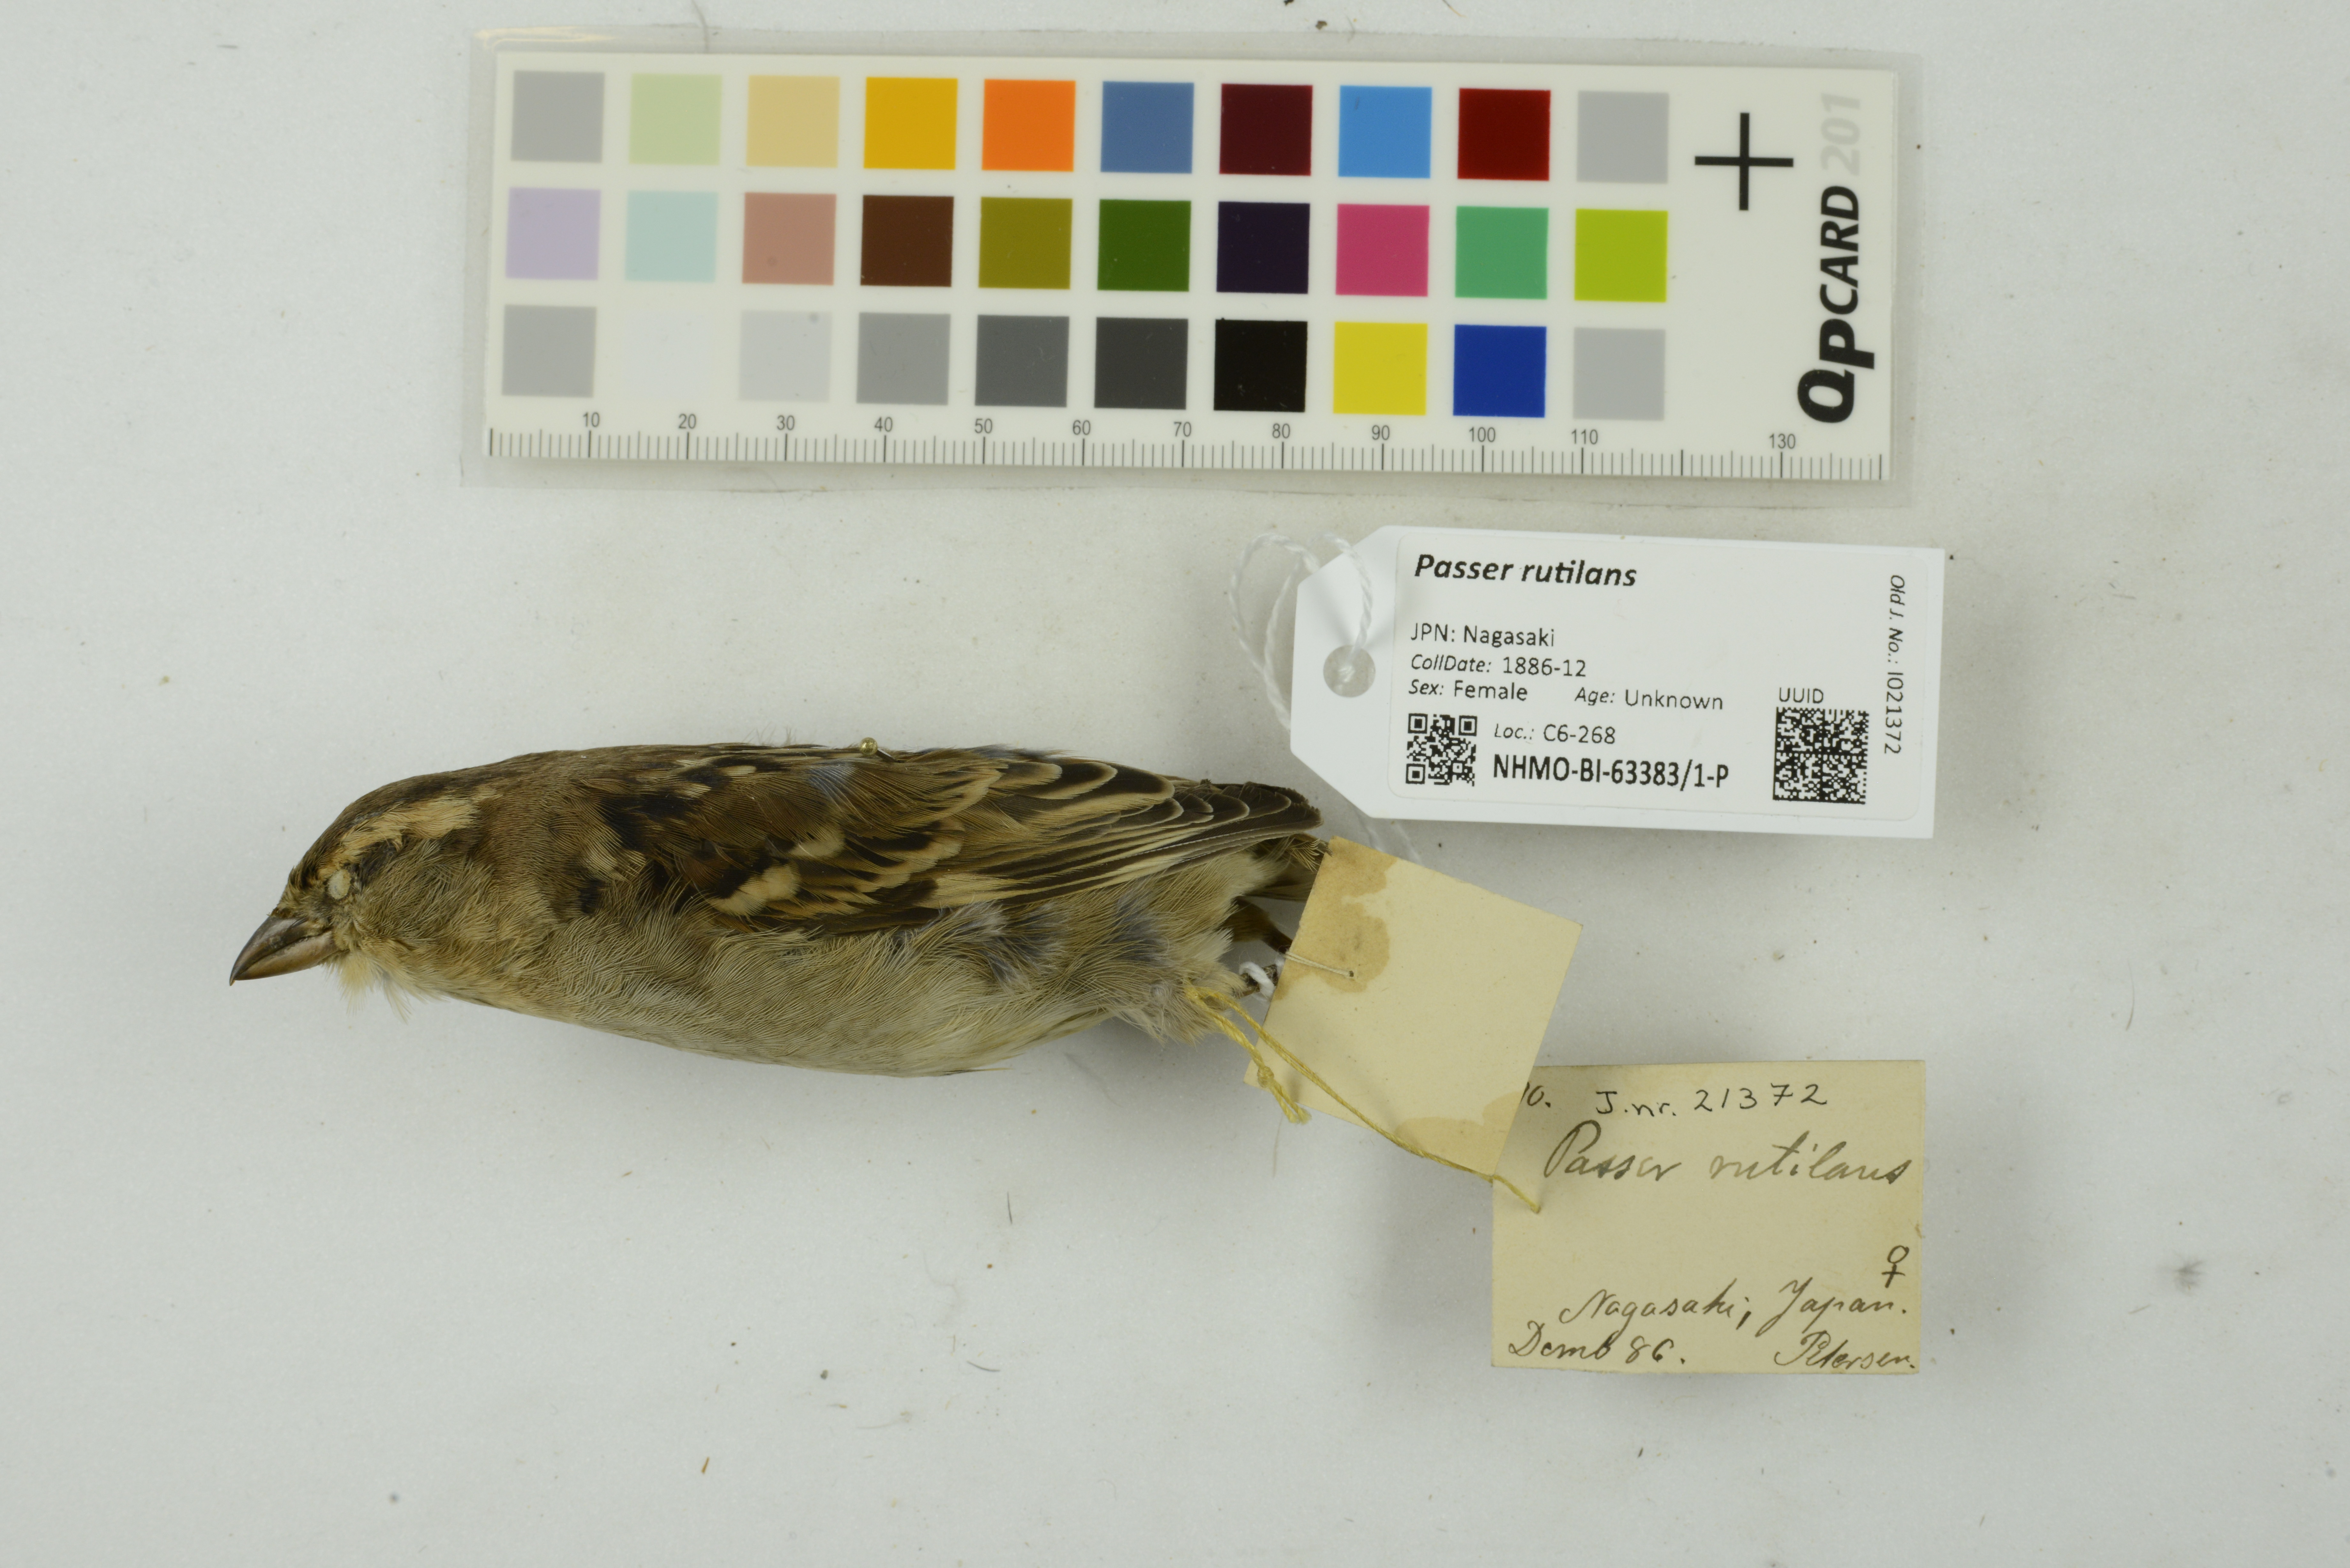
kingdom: Animalia
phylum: Chordata
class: Aves
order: Passeriformes
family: Passeridae
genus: Passer
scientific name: Passer rutilans
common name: Russet sparrow
